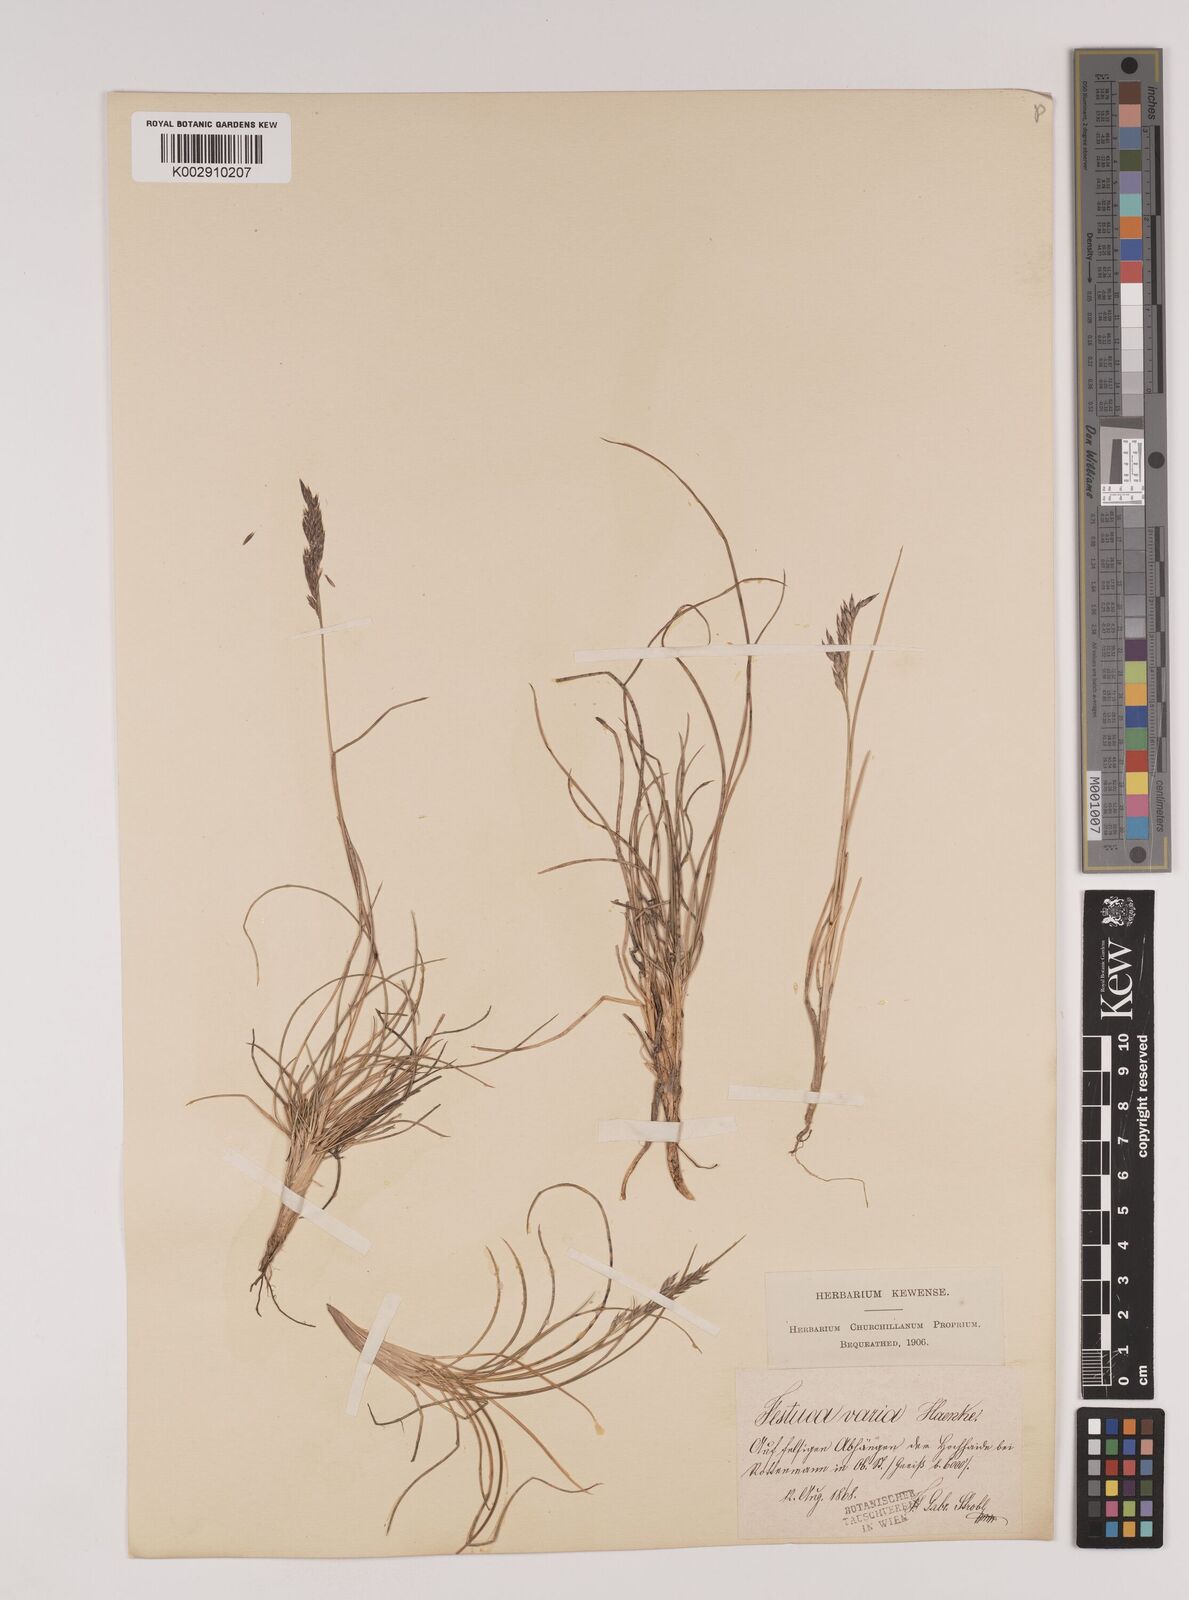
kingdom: Plantae
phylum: Tracheophyta
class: Liliopsida
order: Poales
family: Poaceae
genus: Festuca
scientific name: Festuca varia
